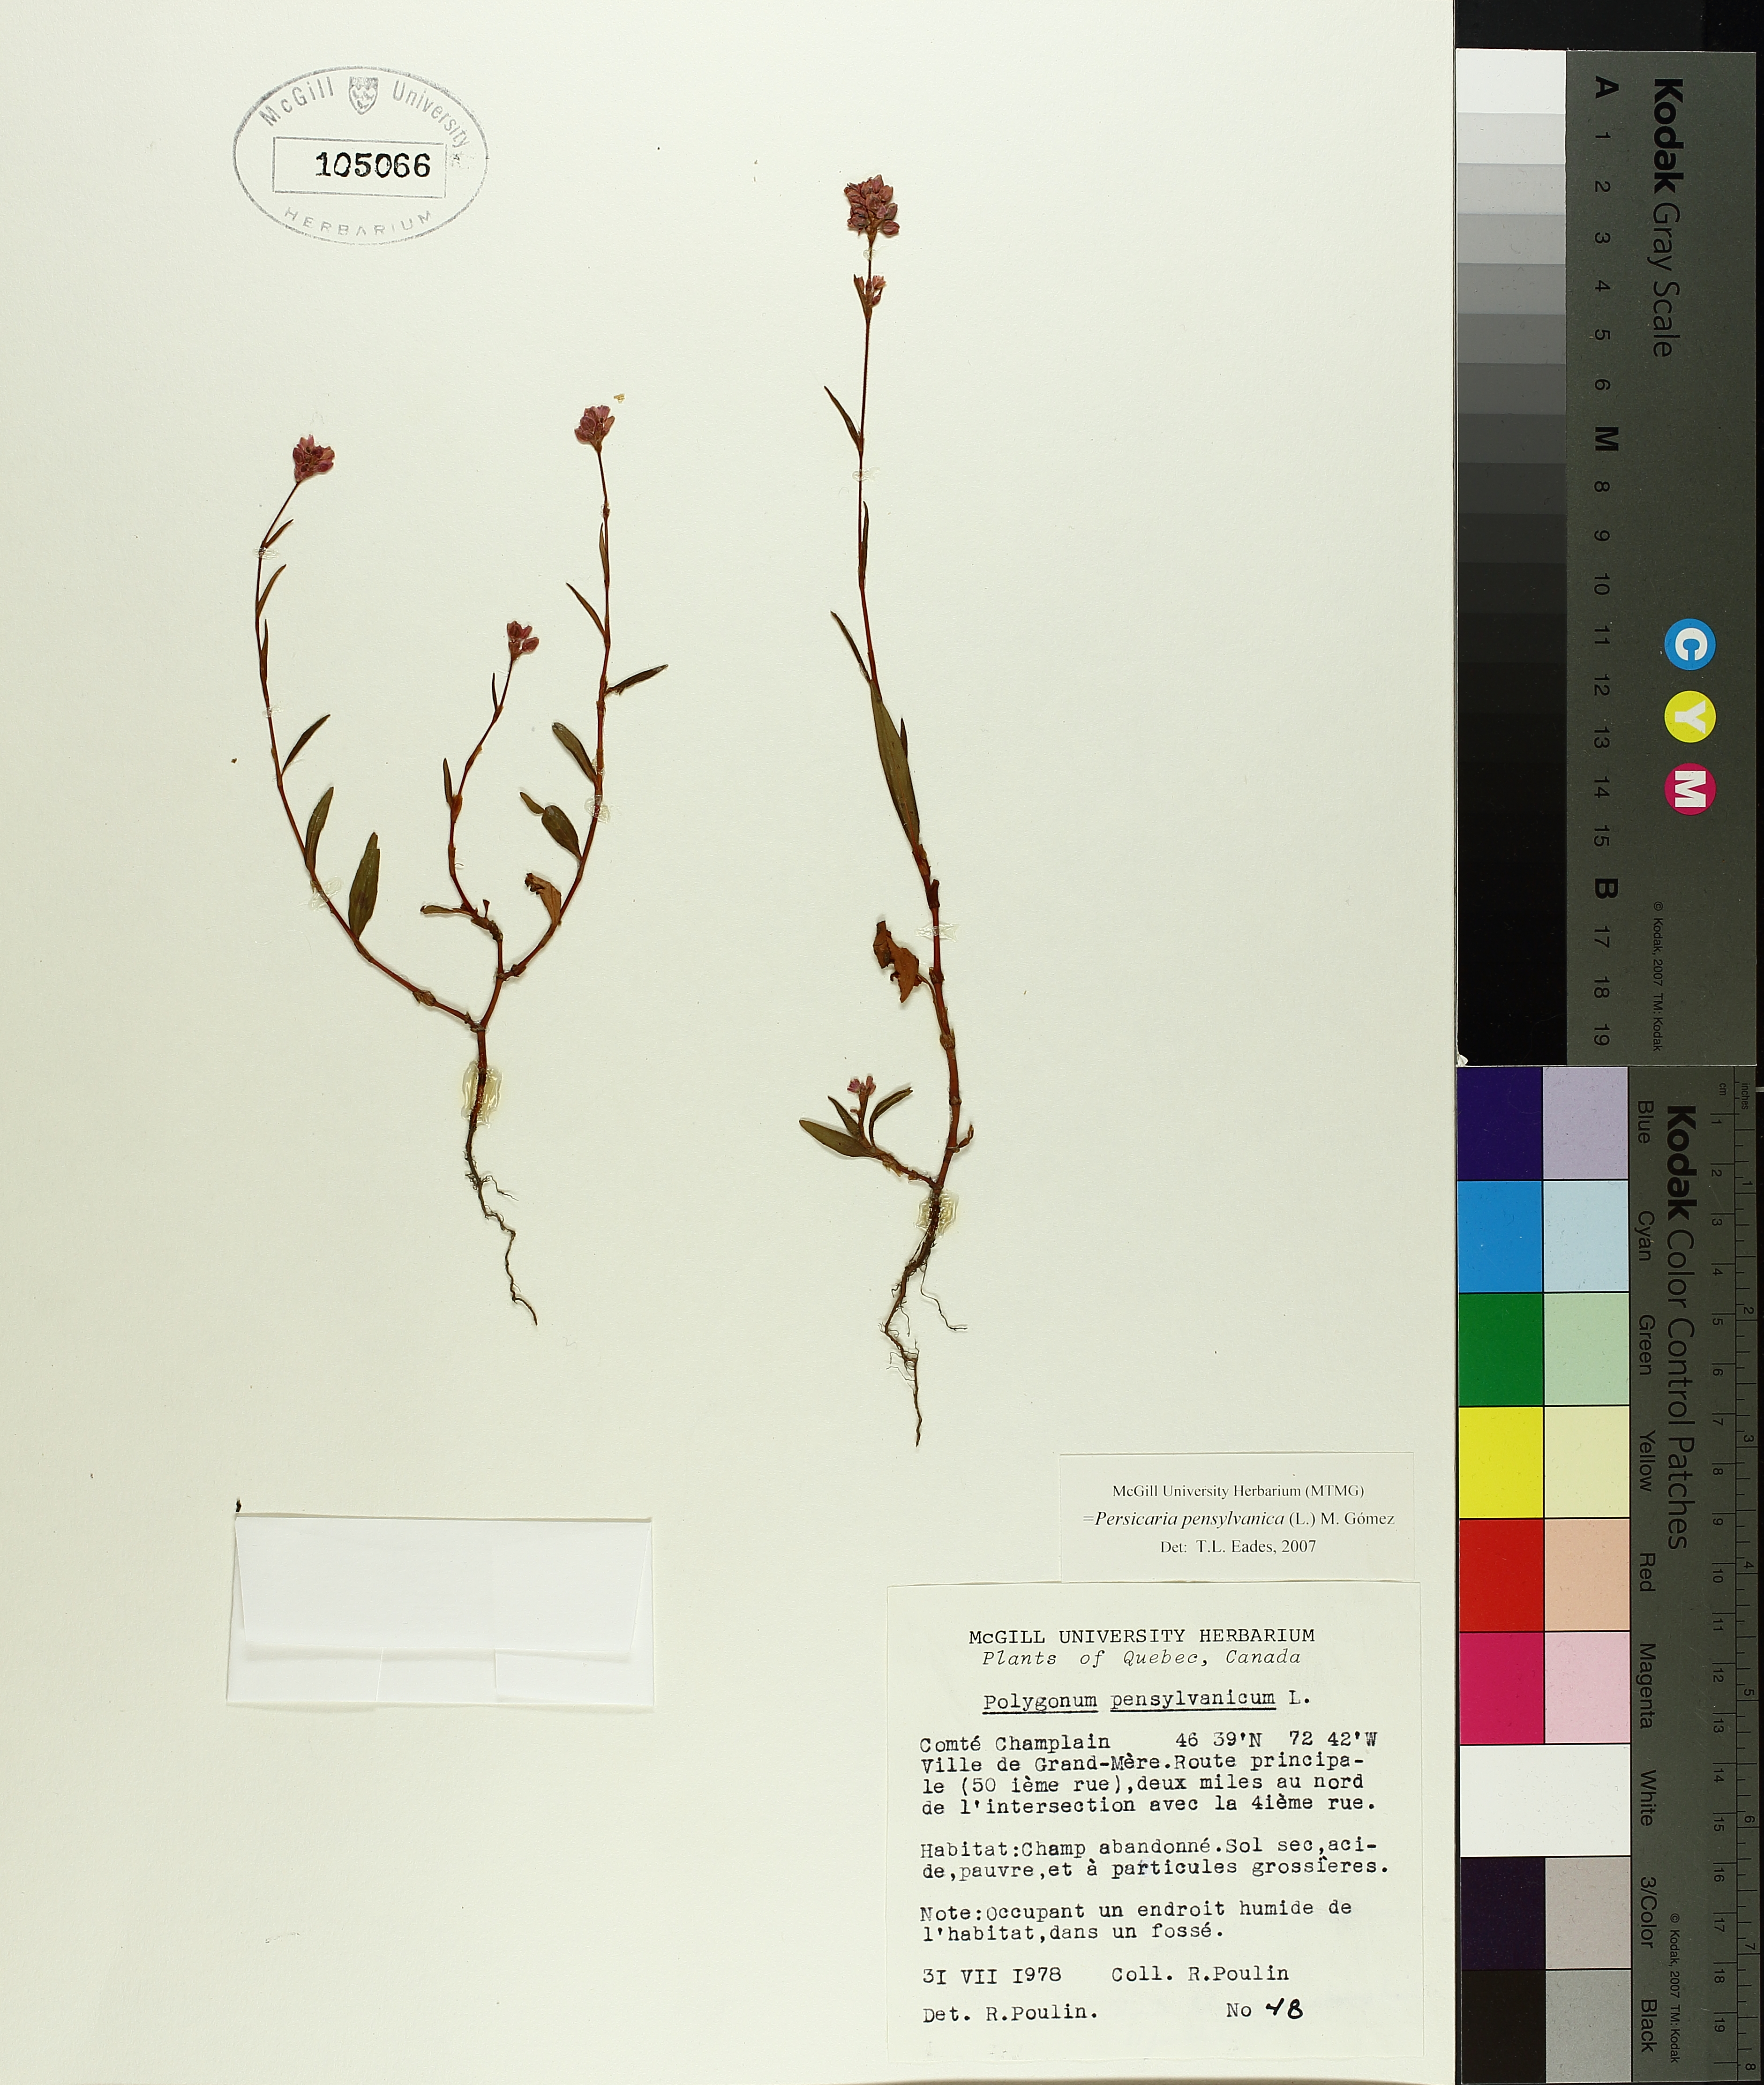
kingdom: Plantae
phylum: Tracheophyta
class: Magnoliopsida
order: Caryophyllales
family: Polygonaceae
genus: Persicaria
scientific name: Persicaria bungeana
